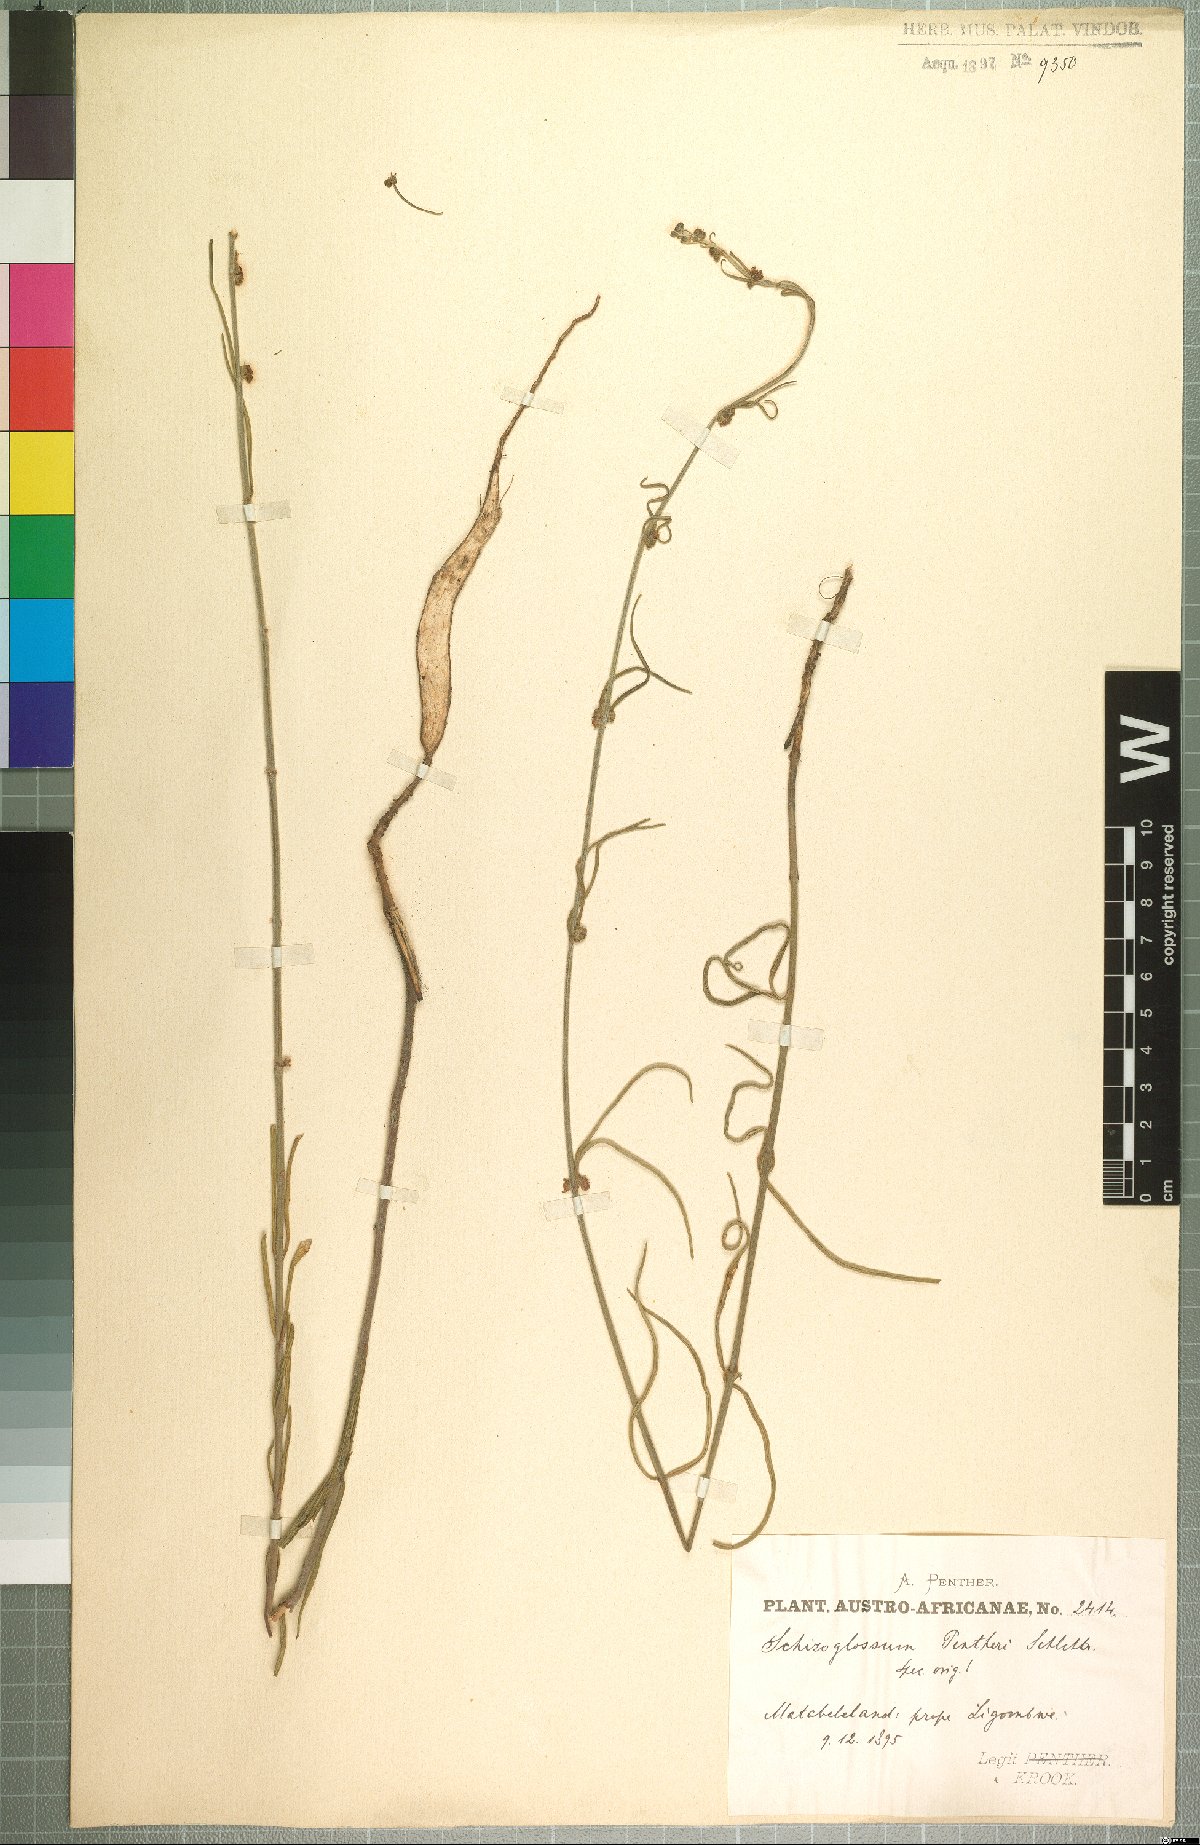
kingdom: Plantae
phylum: Tracheophyta
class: Magnoliopsida
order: Gentianales
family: Apocynaceae
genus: Aspidoglossum
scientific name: Aspidoglossum erubescens
